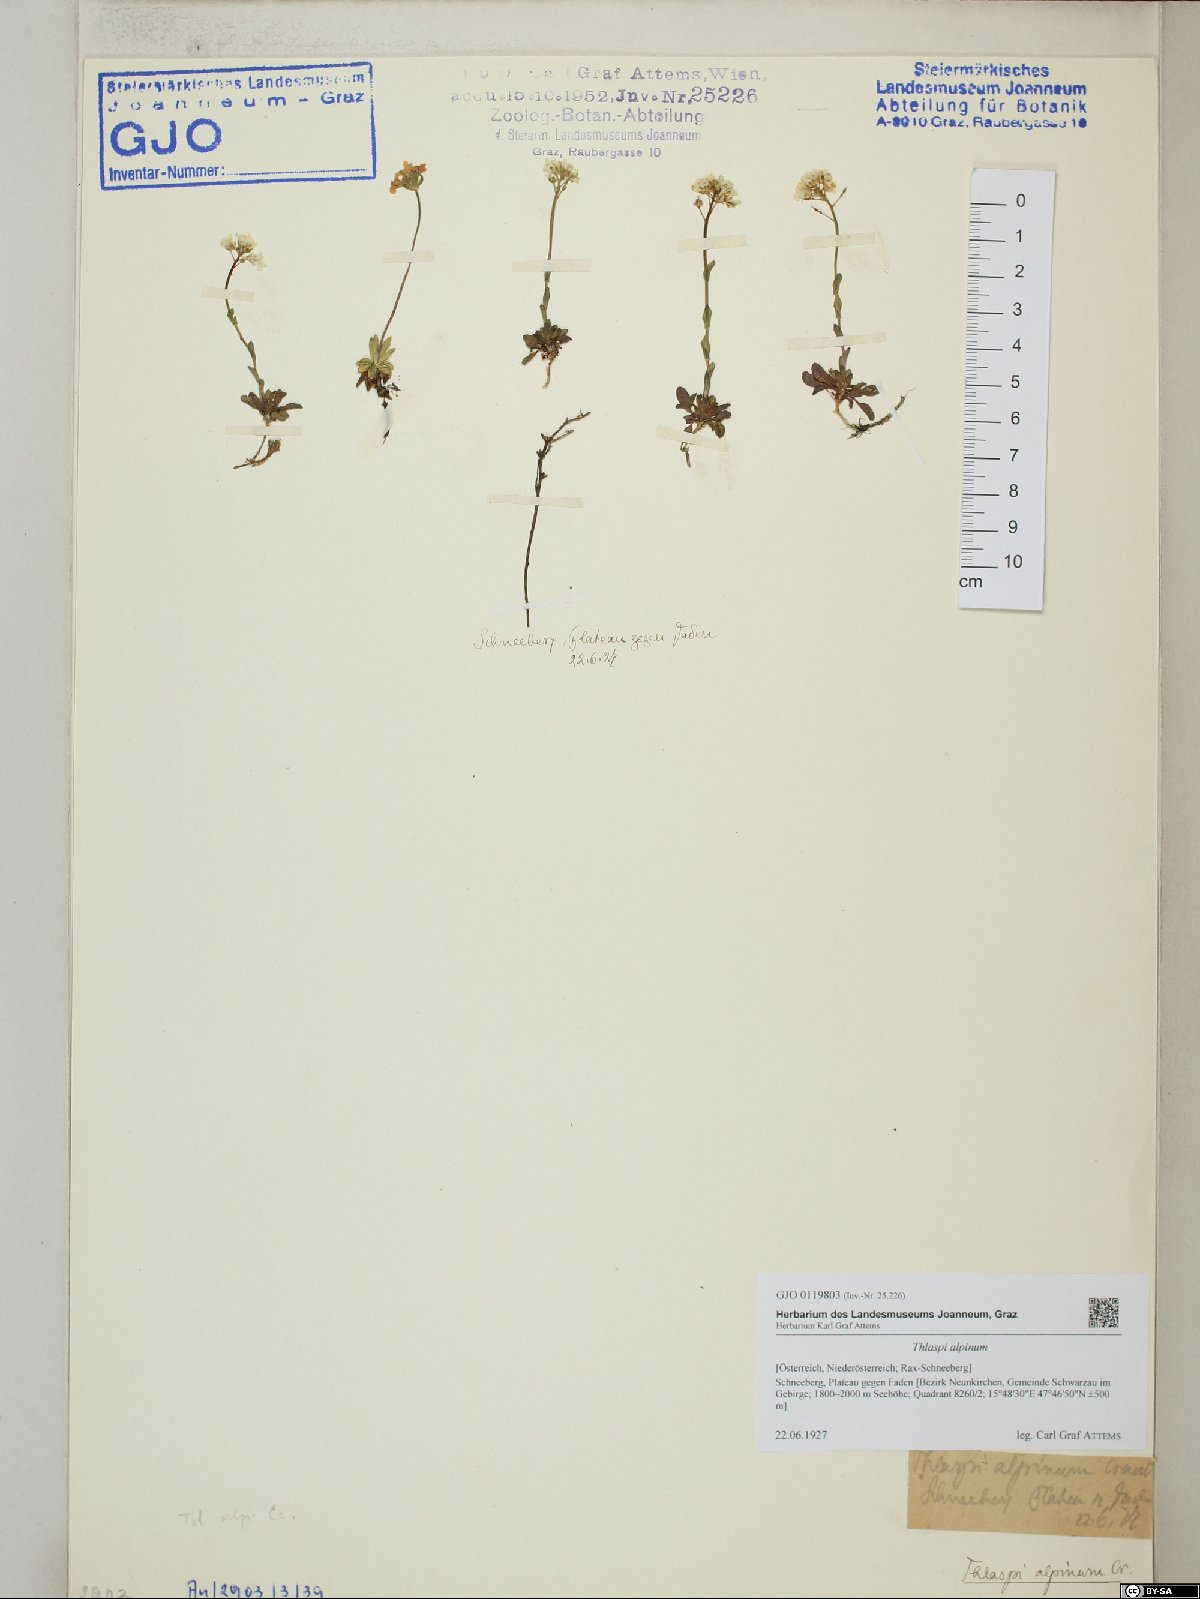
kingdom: Plantae
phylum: Tracheophyta
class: Magnoliopsida
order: Brassicales
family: Brassicaceae
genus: Noccaea
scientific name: Noccaea alpestris
